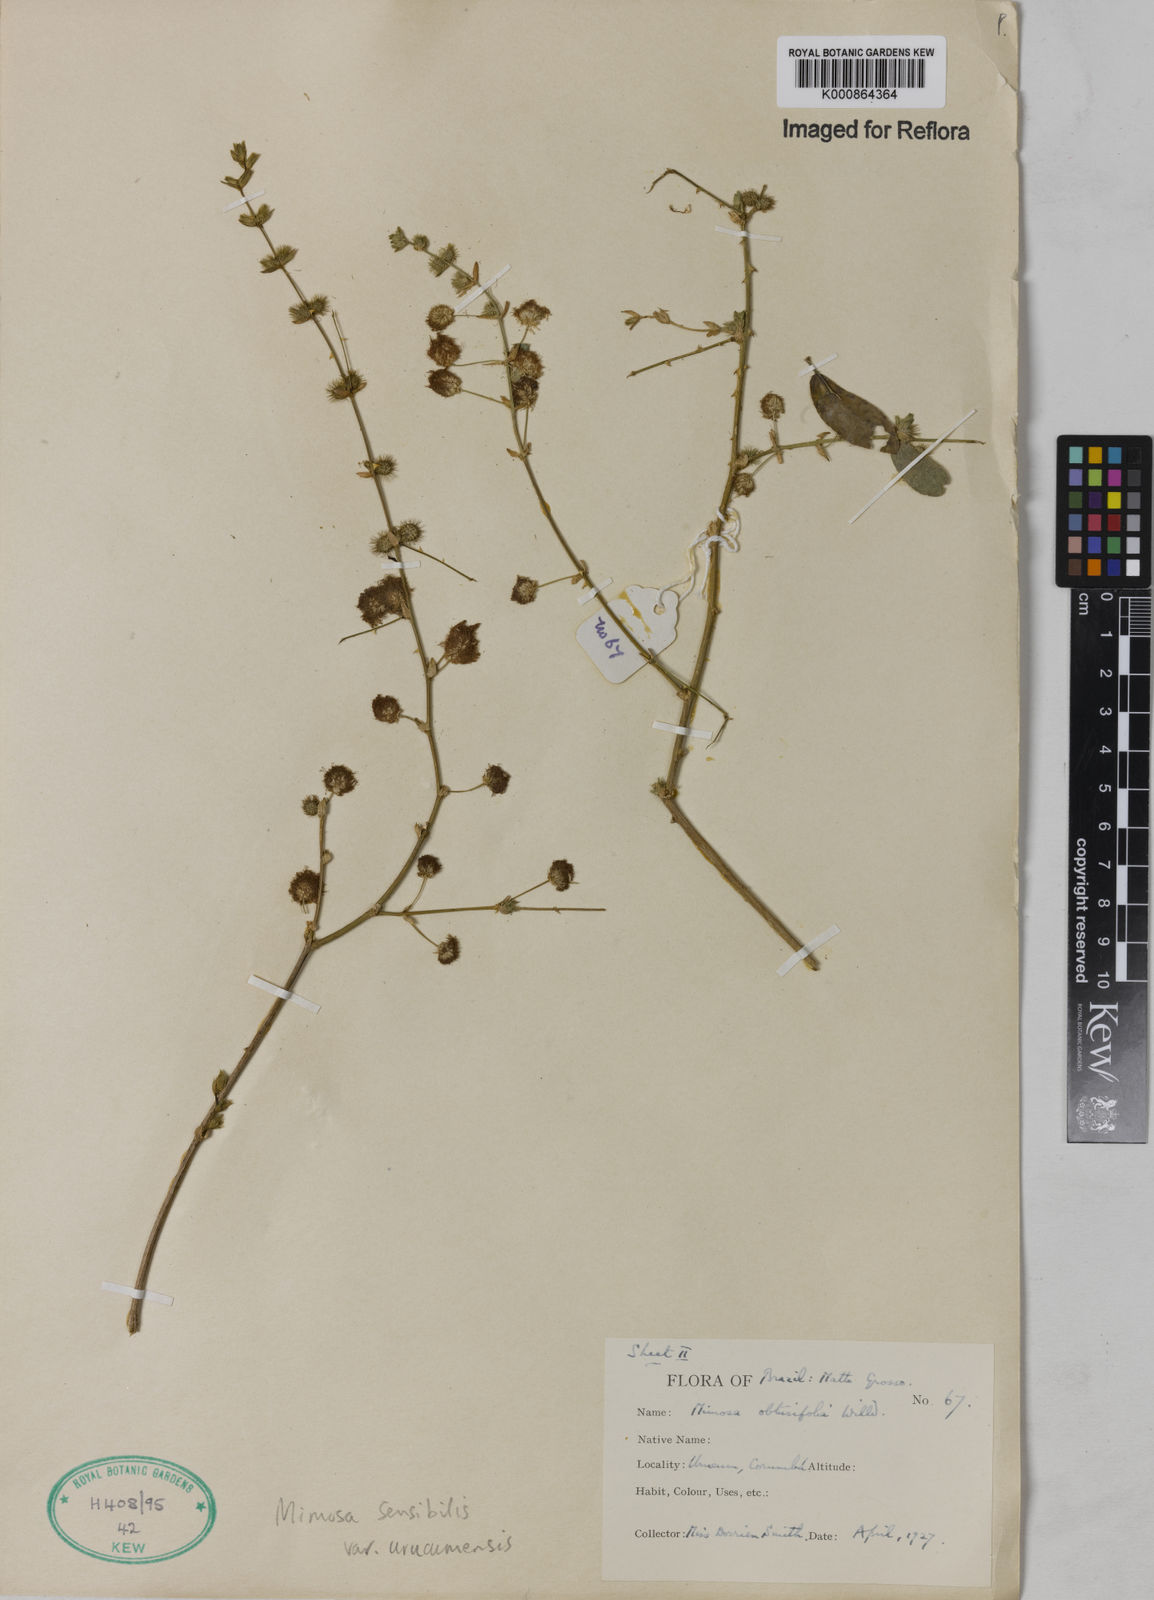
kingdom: Plantae
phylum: Tracheophyta
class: Magnoliopsida
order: Fabales
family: Fabaceae
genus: Mimosa
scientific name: Mimosa sensibilis
